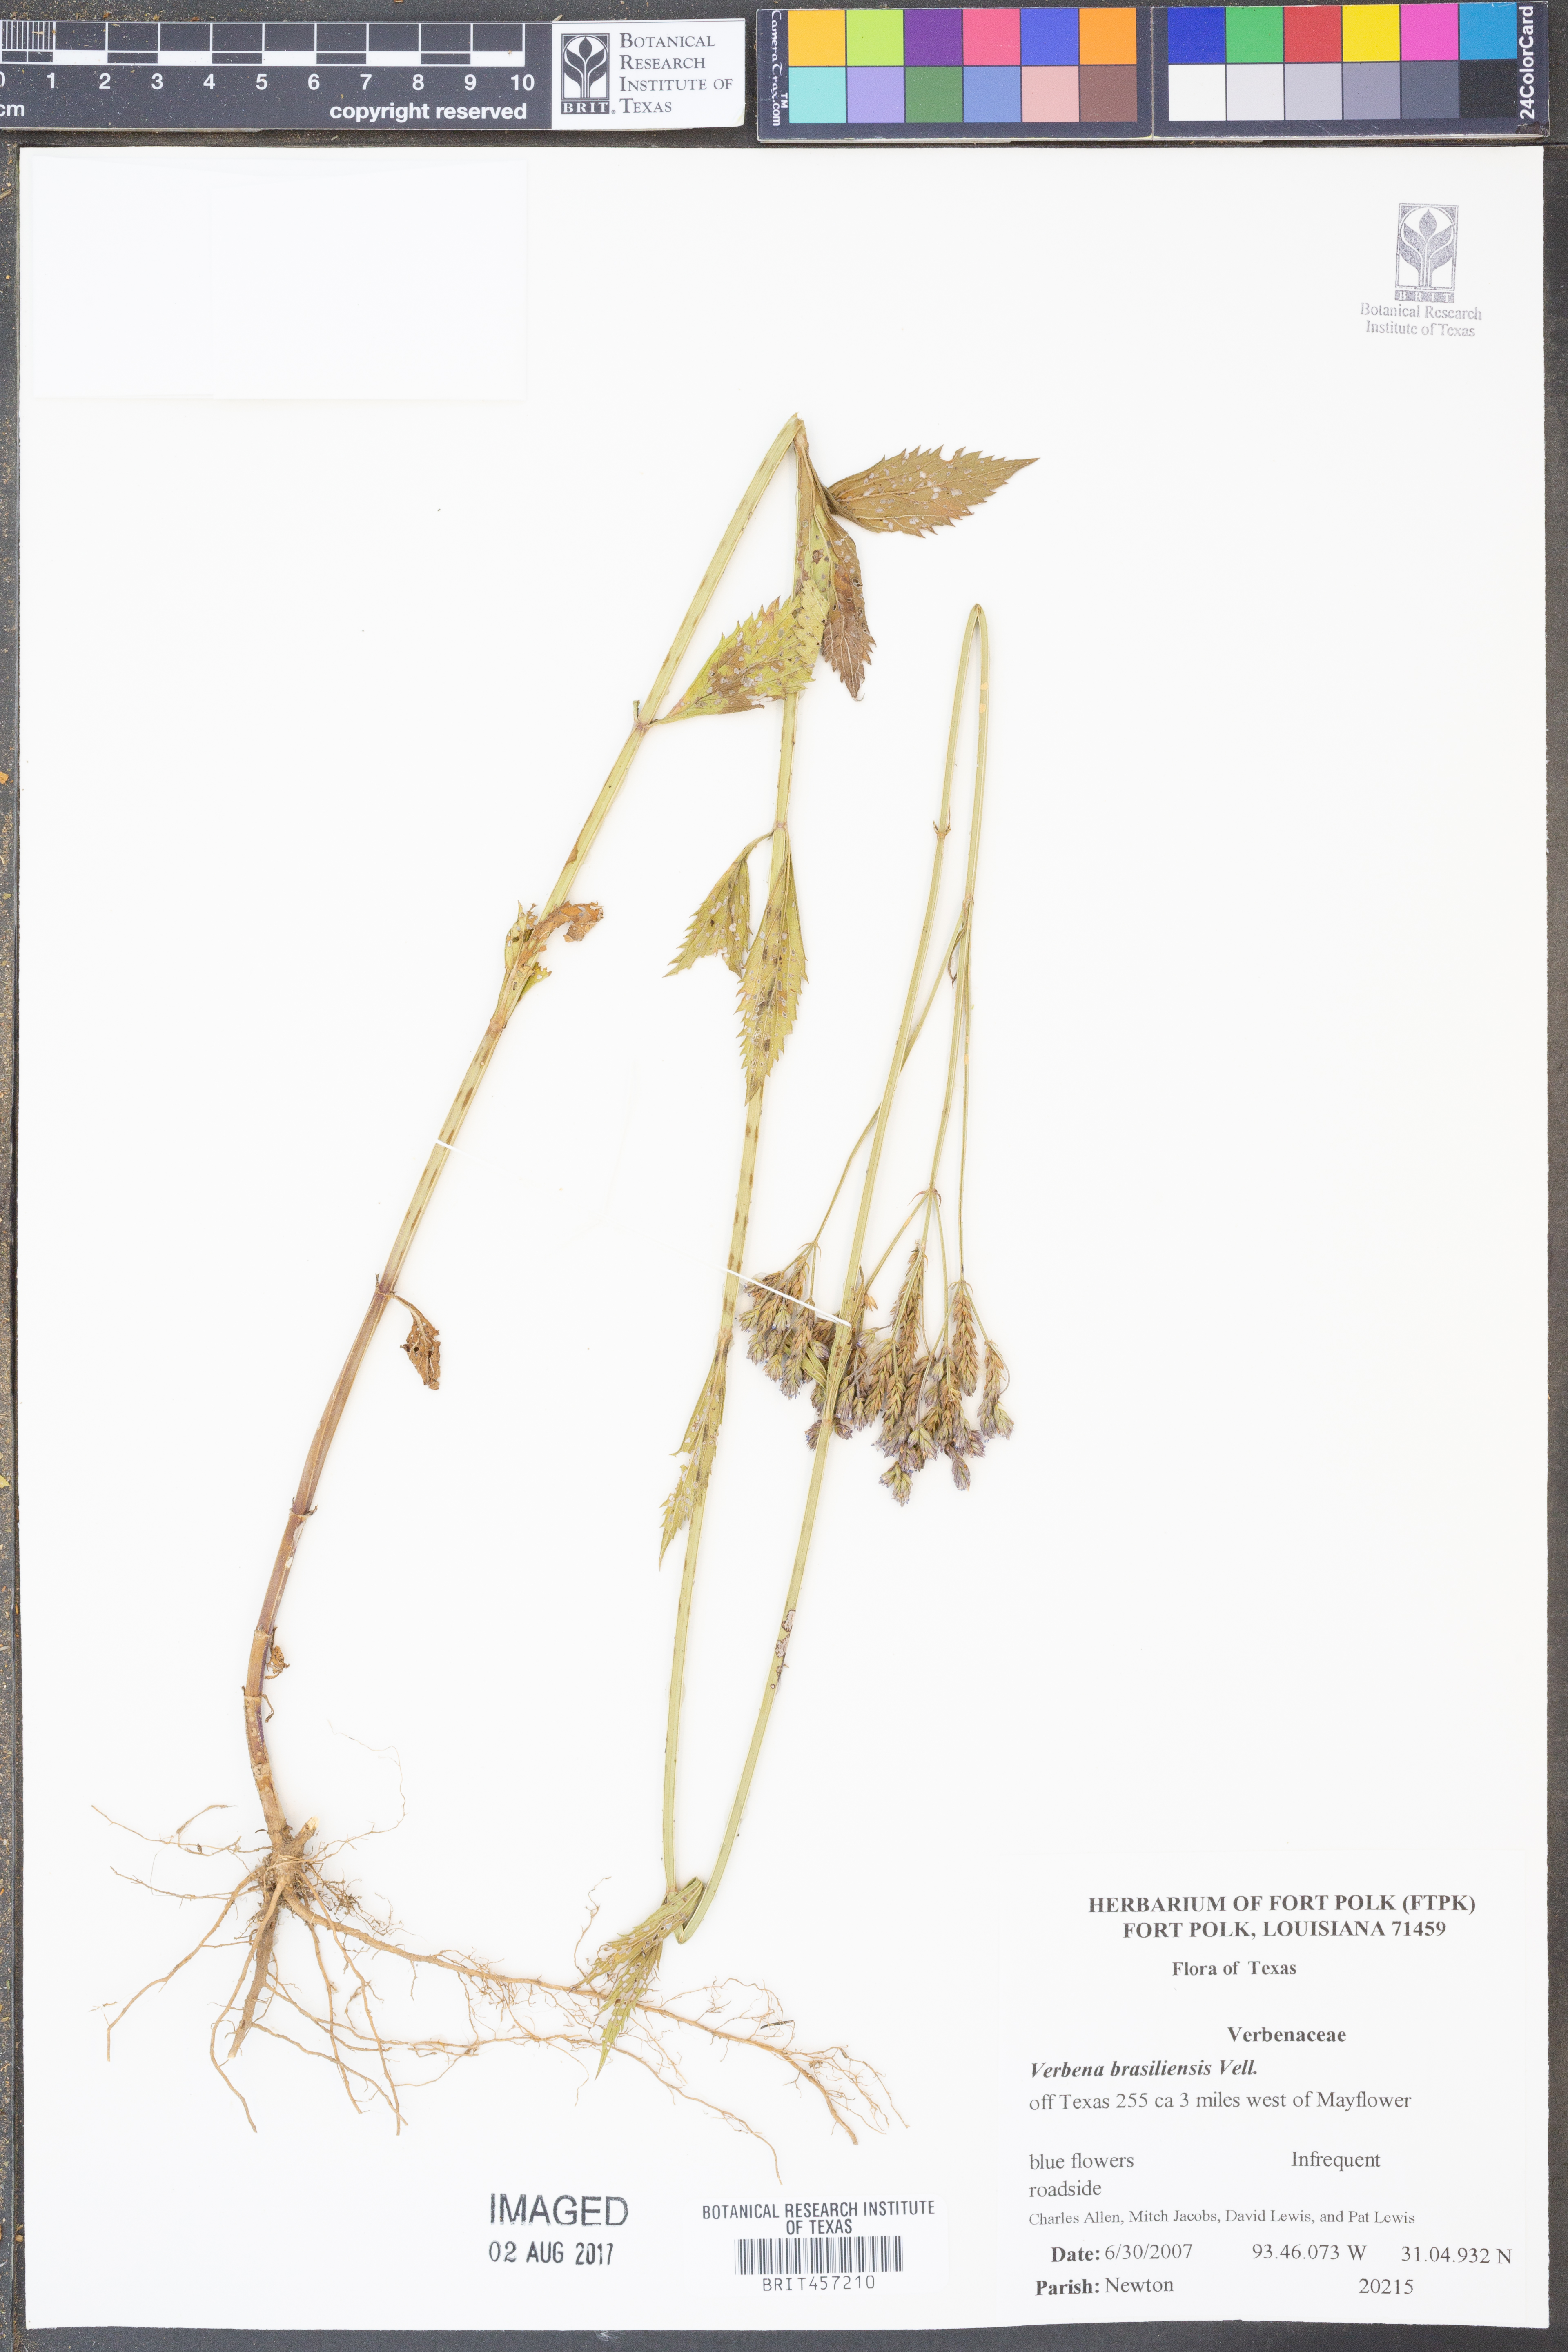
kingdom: Plantae
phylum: Tracheophyta
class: Magnoliopsida
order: Lamiales
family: Verbenaceae
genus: Verbena
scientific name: Verbena brasiliensis
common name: Brazilian vervain
